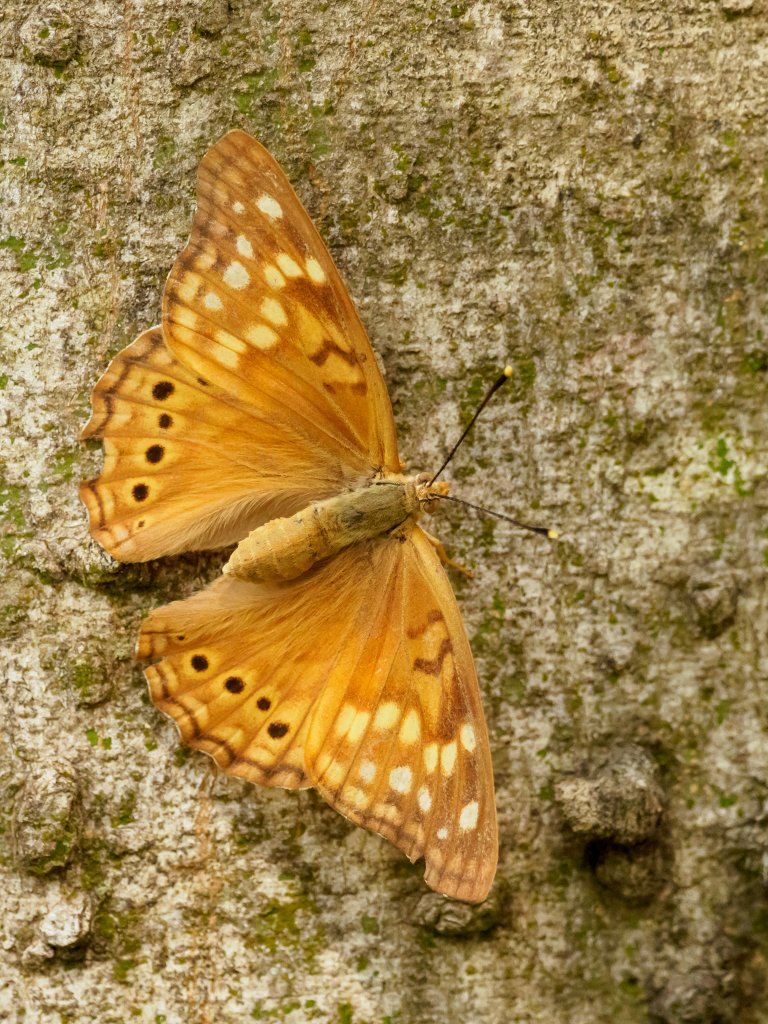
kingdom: Animalia
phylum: Arthropoda
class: Insecta
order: Lepidoptera
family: Nymphalidae
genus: Asterocampa
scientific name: Asterocampa clyton
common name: Tawny Emperor
